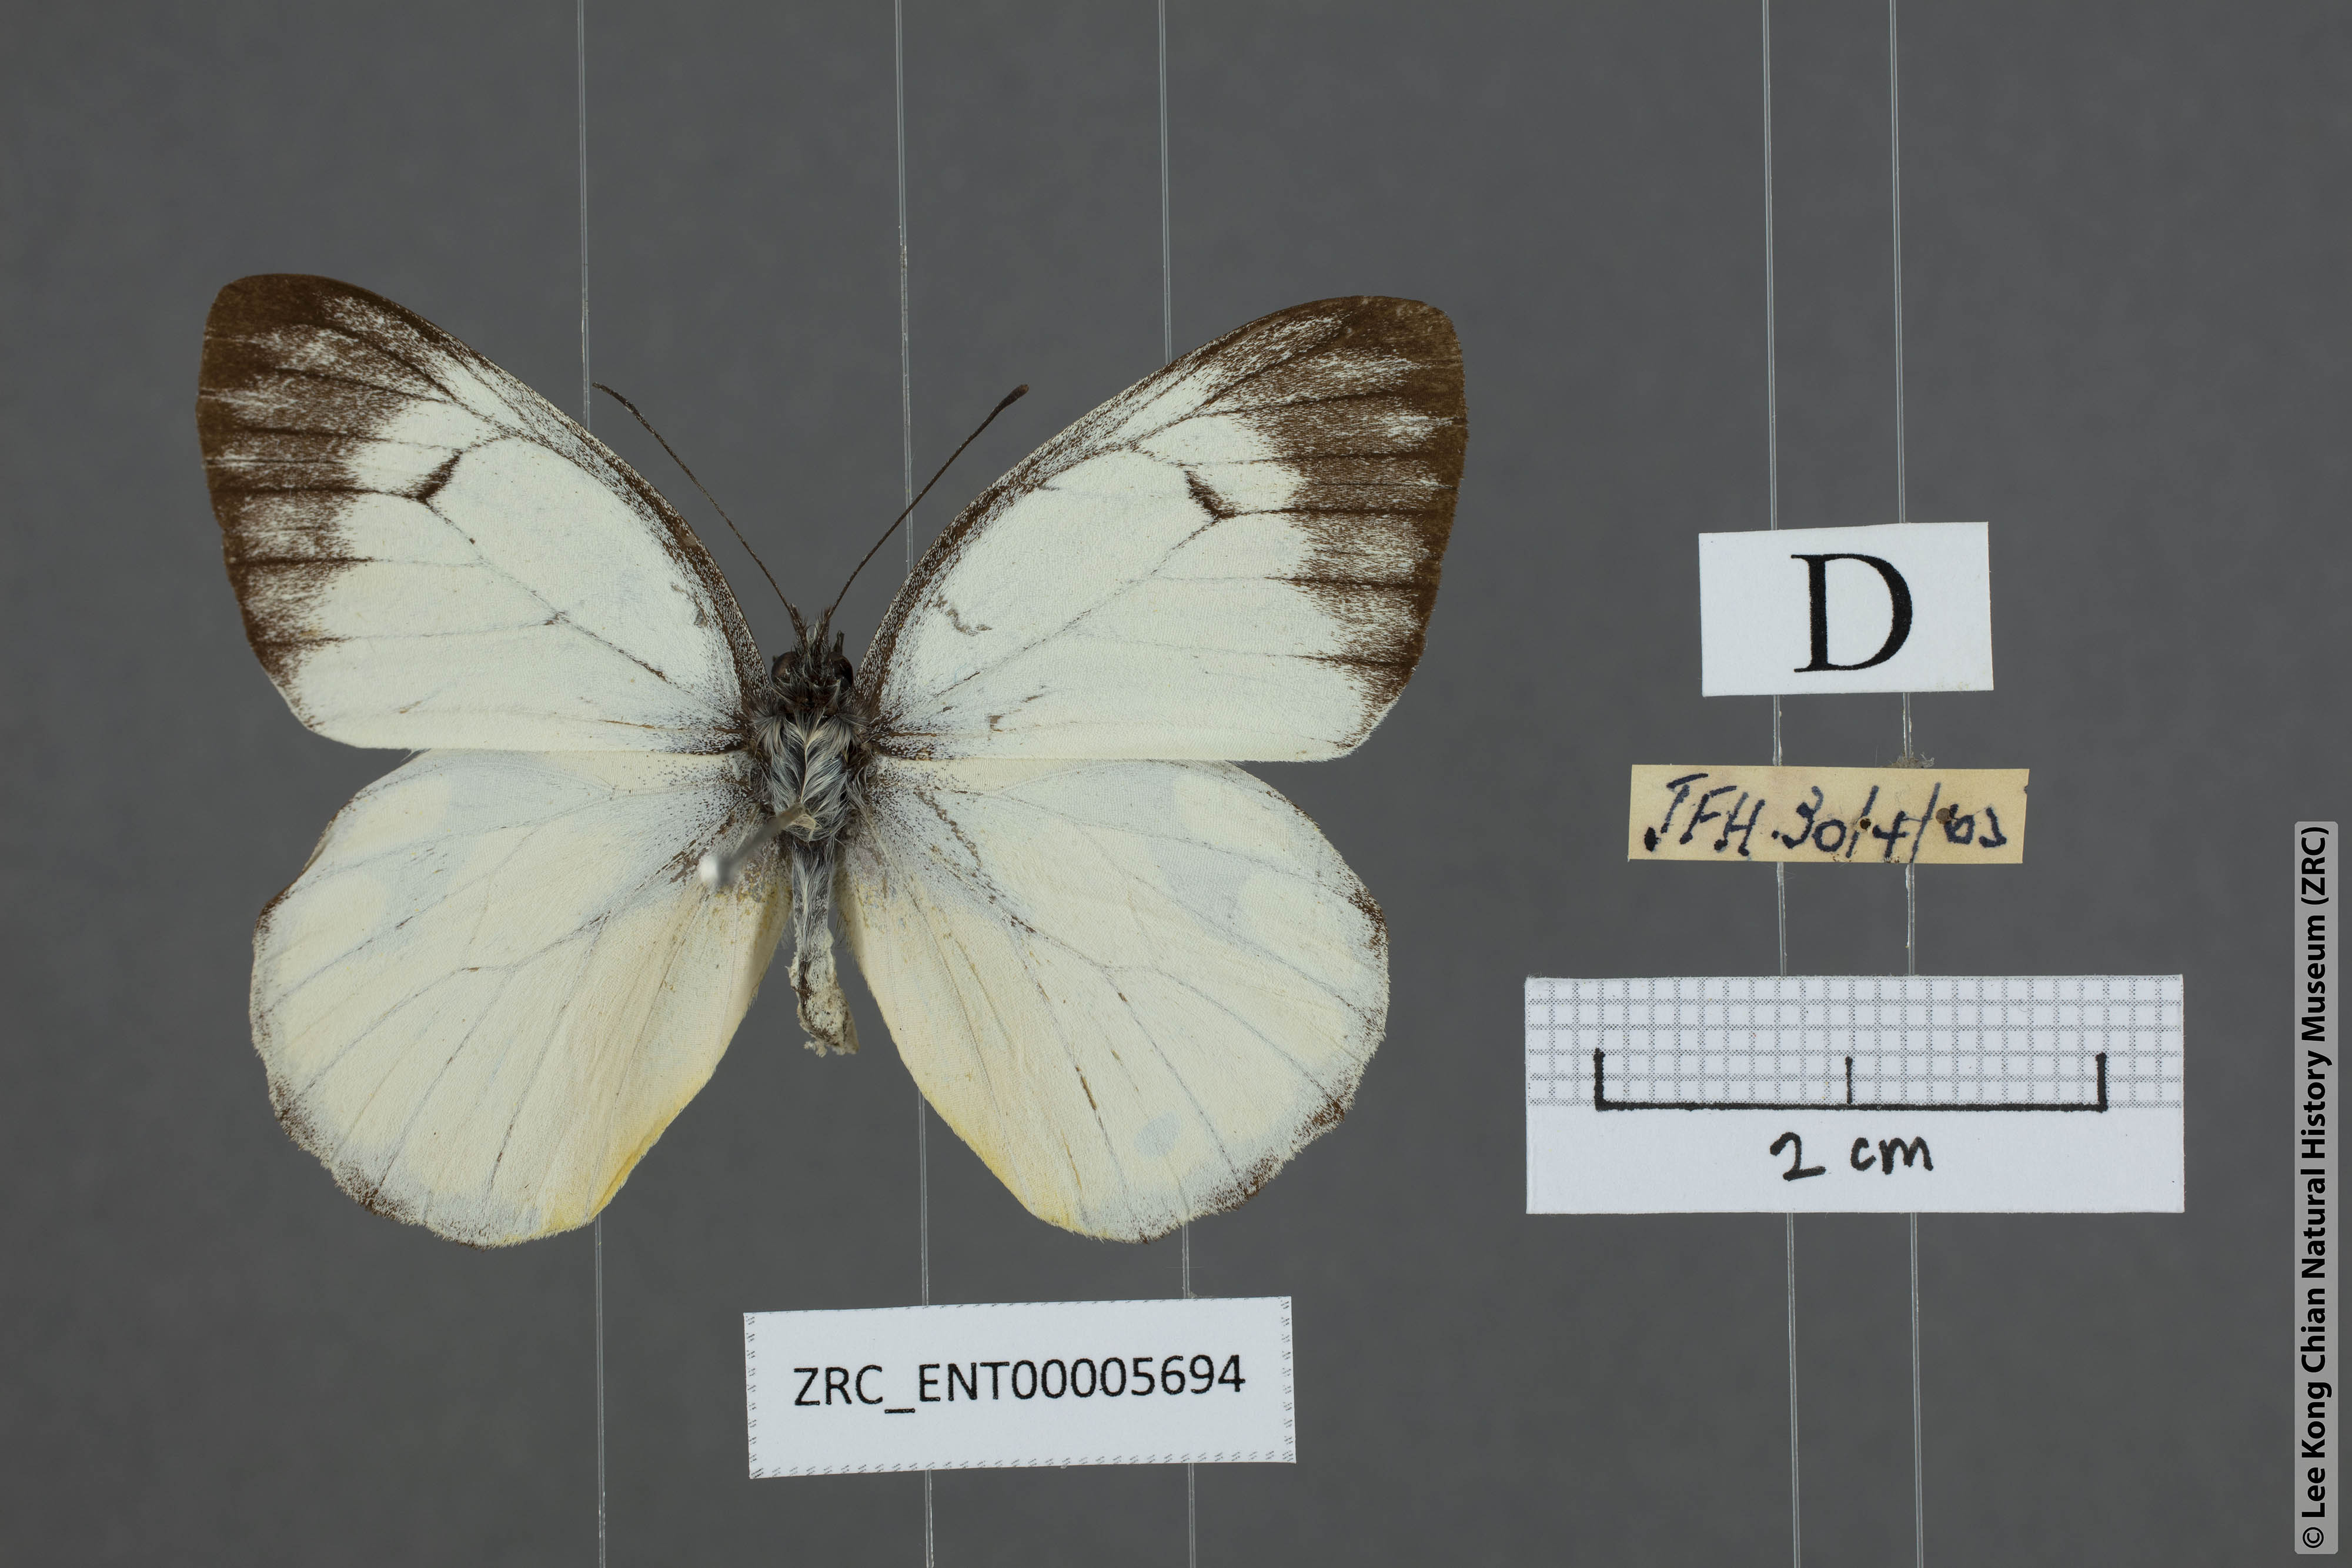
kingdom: Animalia
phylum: Arthropoda
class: Insecta
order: Lepidoptera
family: Pieridae
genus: Delias
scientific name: Delias georgina
